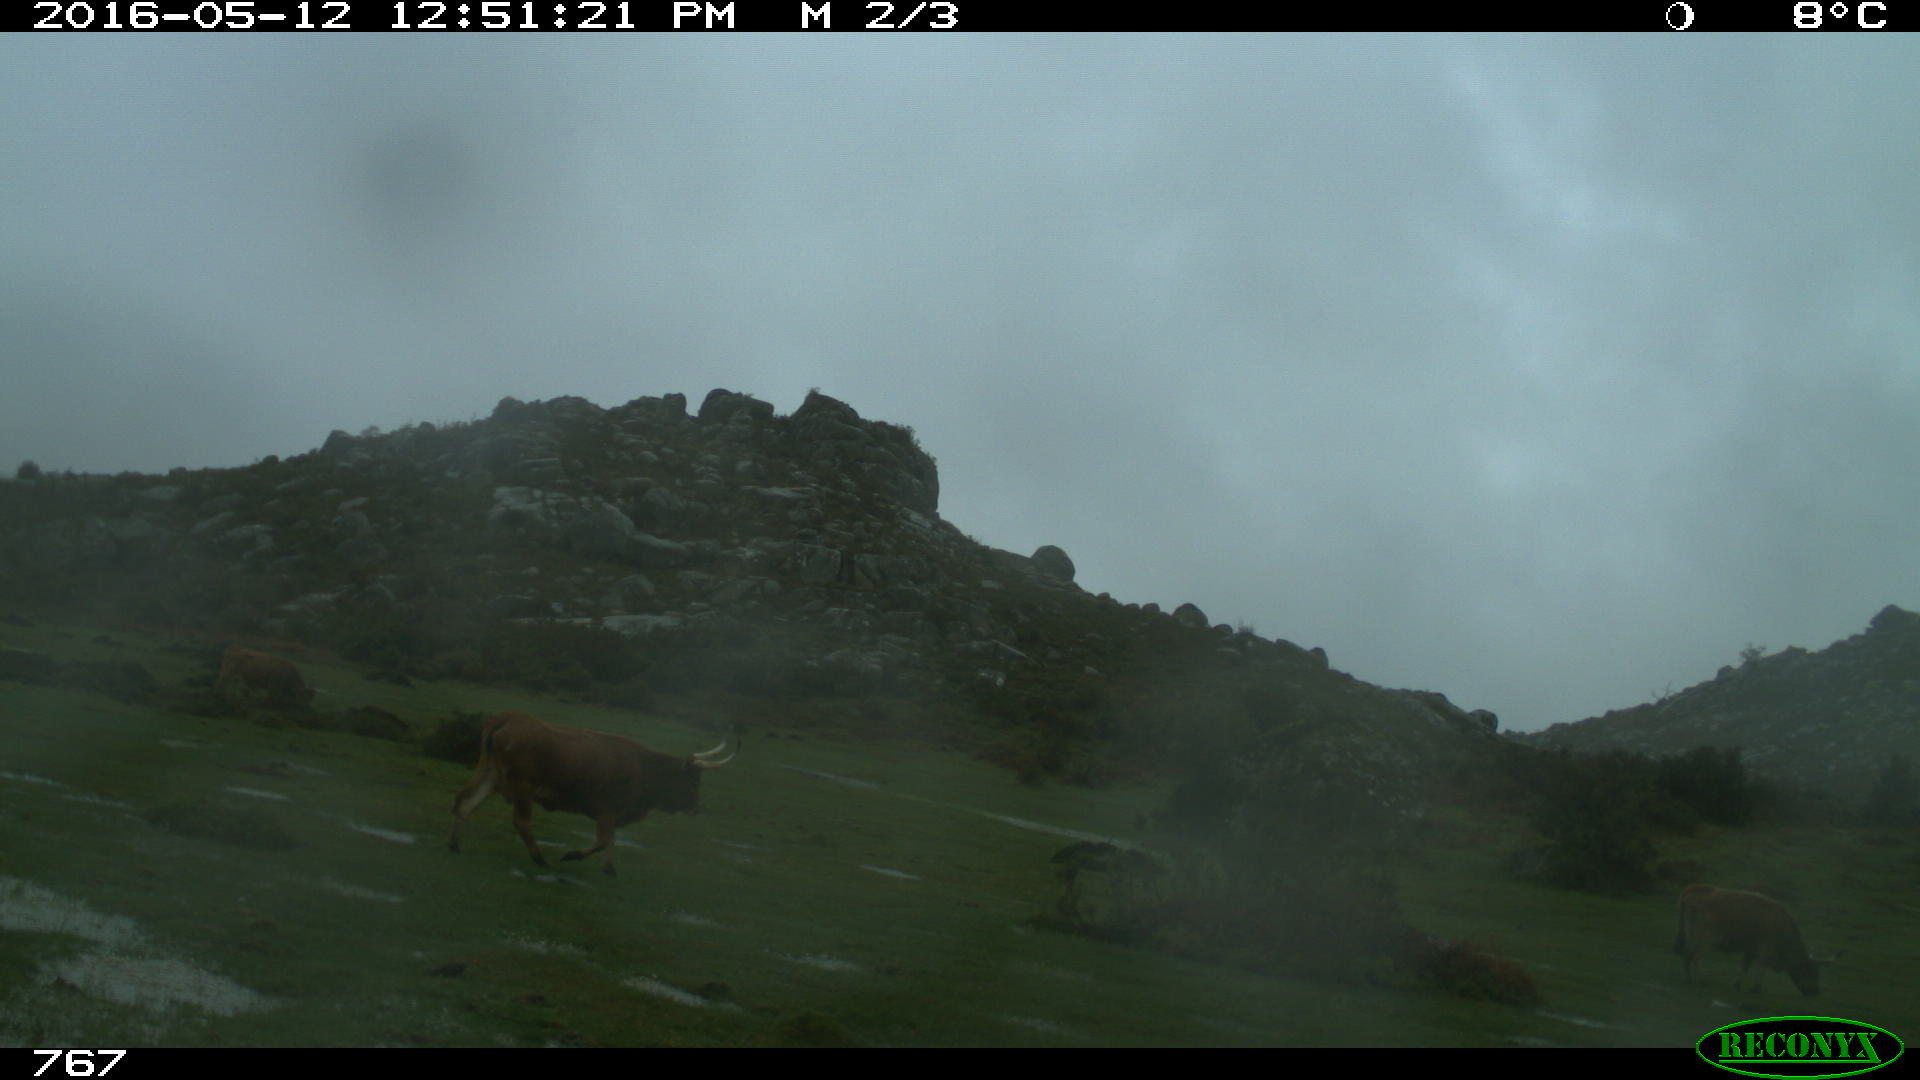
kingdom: Animalia
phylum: Chordata
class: Mammalia
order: Artiodactyla
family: Bovidae
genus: Bos
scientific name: Bos taurus
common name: Domesticated cattle
